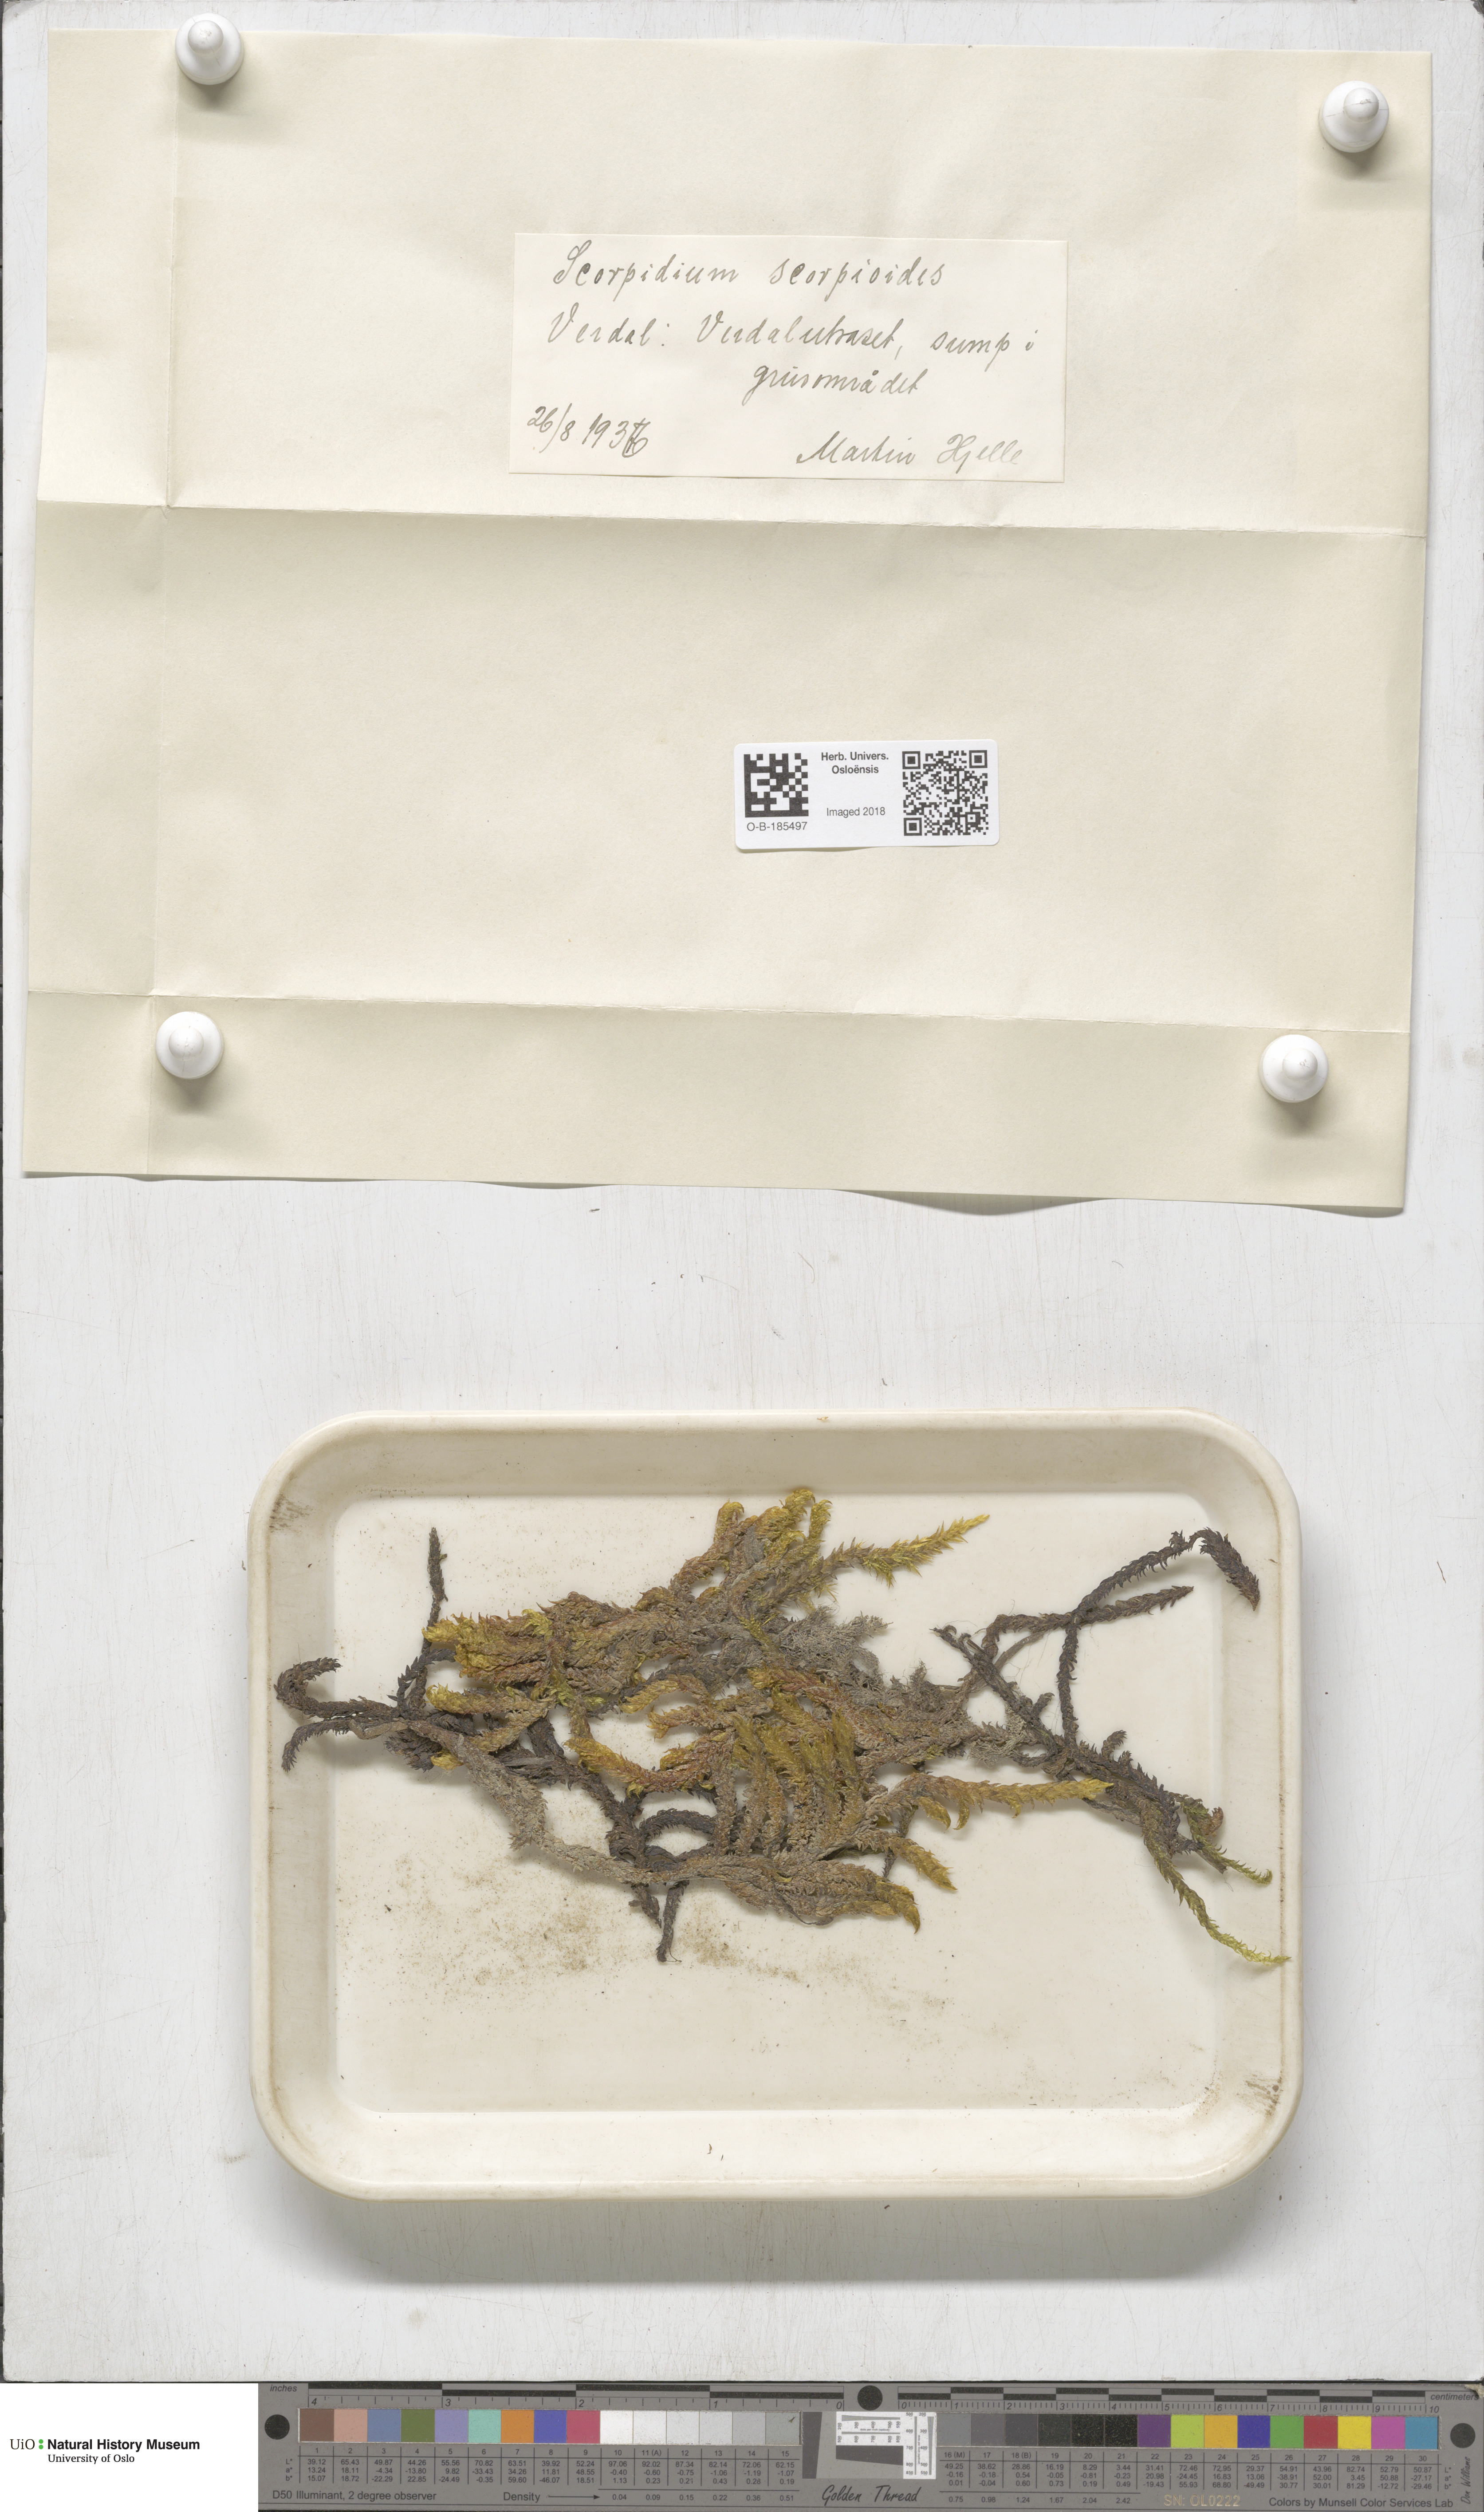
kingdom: Plantae
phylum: Bryophyta
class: Bryopsida
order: Hypnales
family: Scorpidiaceae
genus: Scorpidium
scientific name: Scorpidium scorpioides
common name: Hooked scorpion moss
